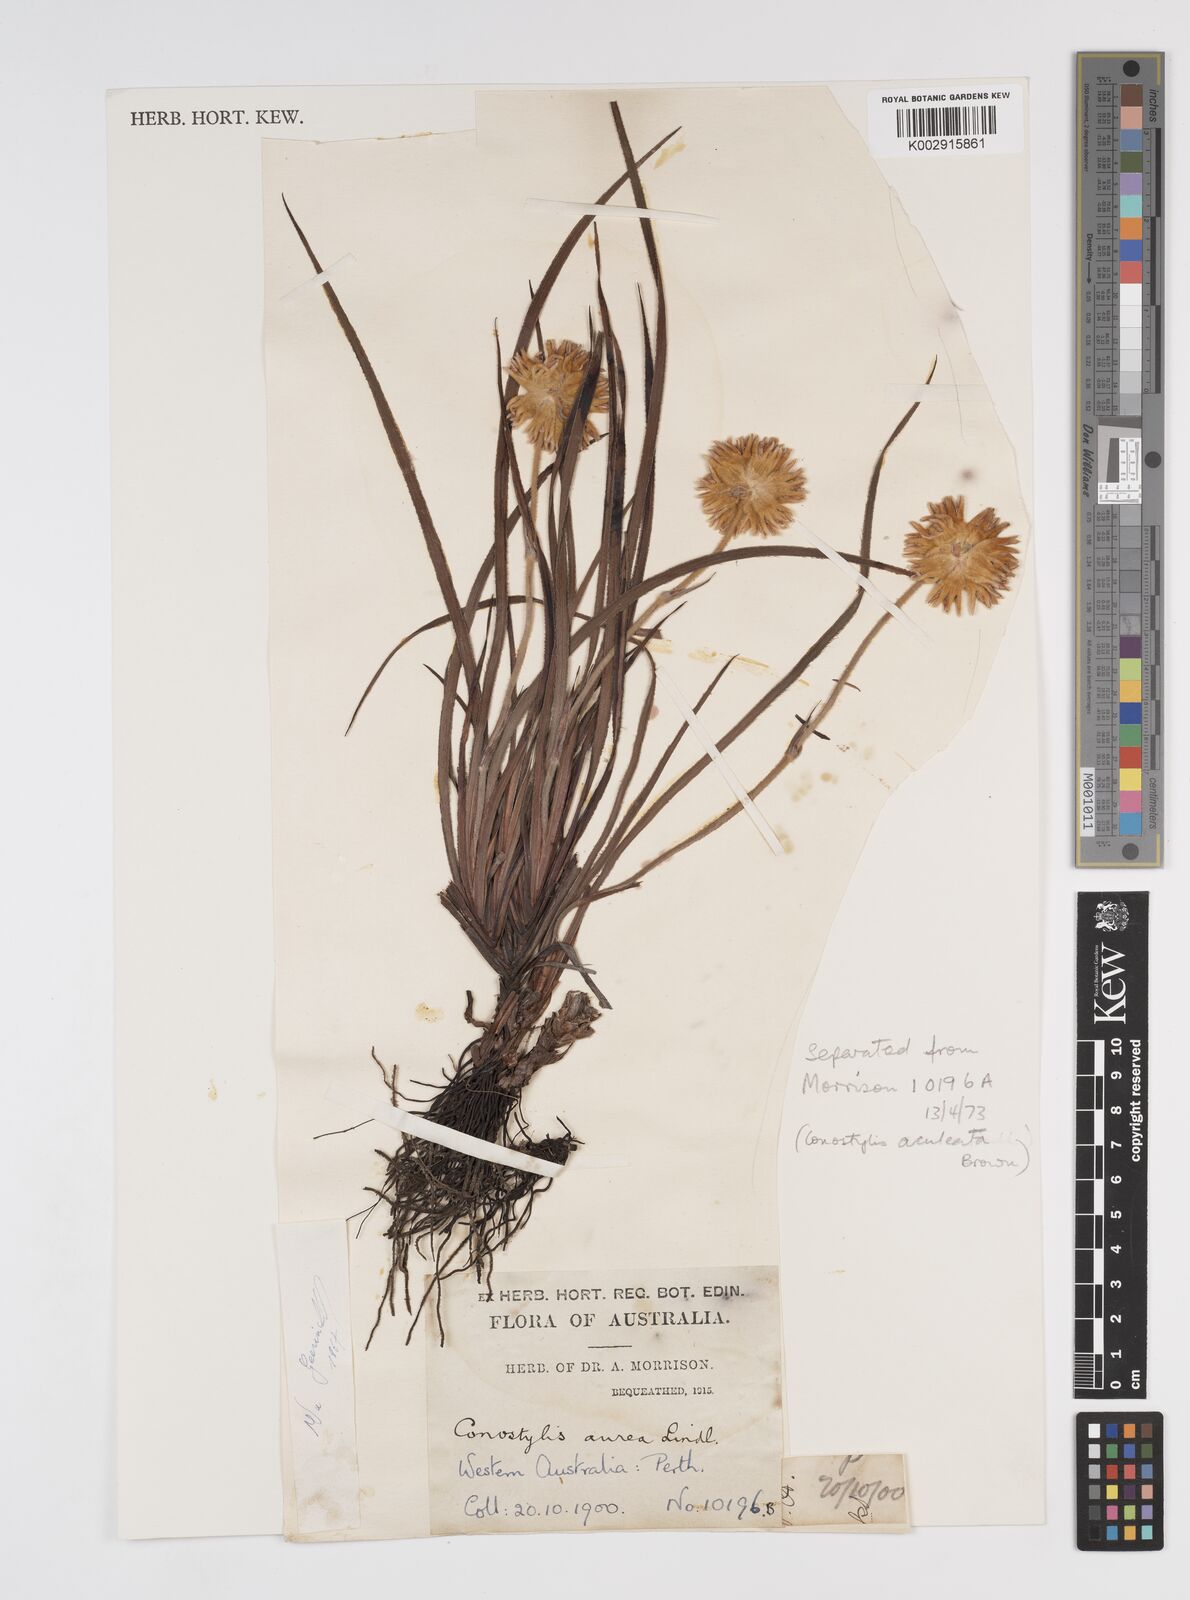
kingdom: Plantae
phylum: Tracheophyta
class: Liliopsida
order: Commelinales
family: Haemodoraceae
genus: Conostylis
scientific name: Conostylis aurea
